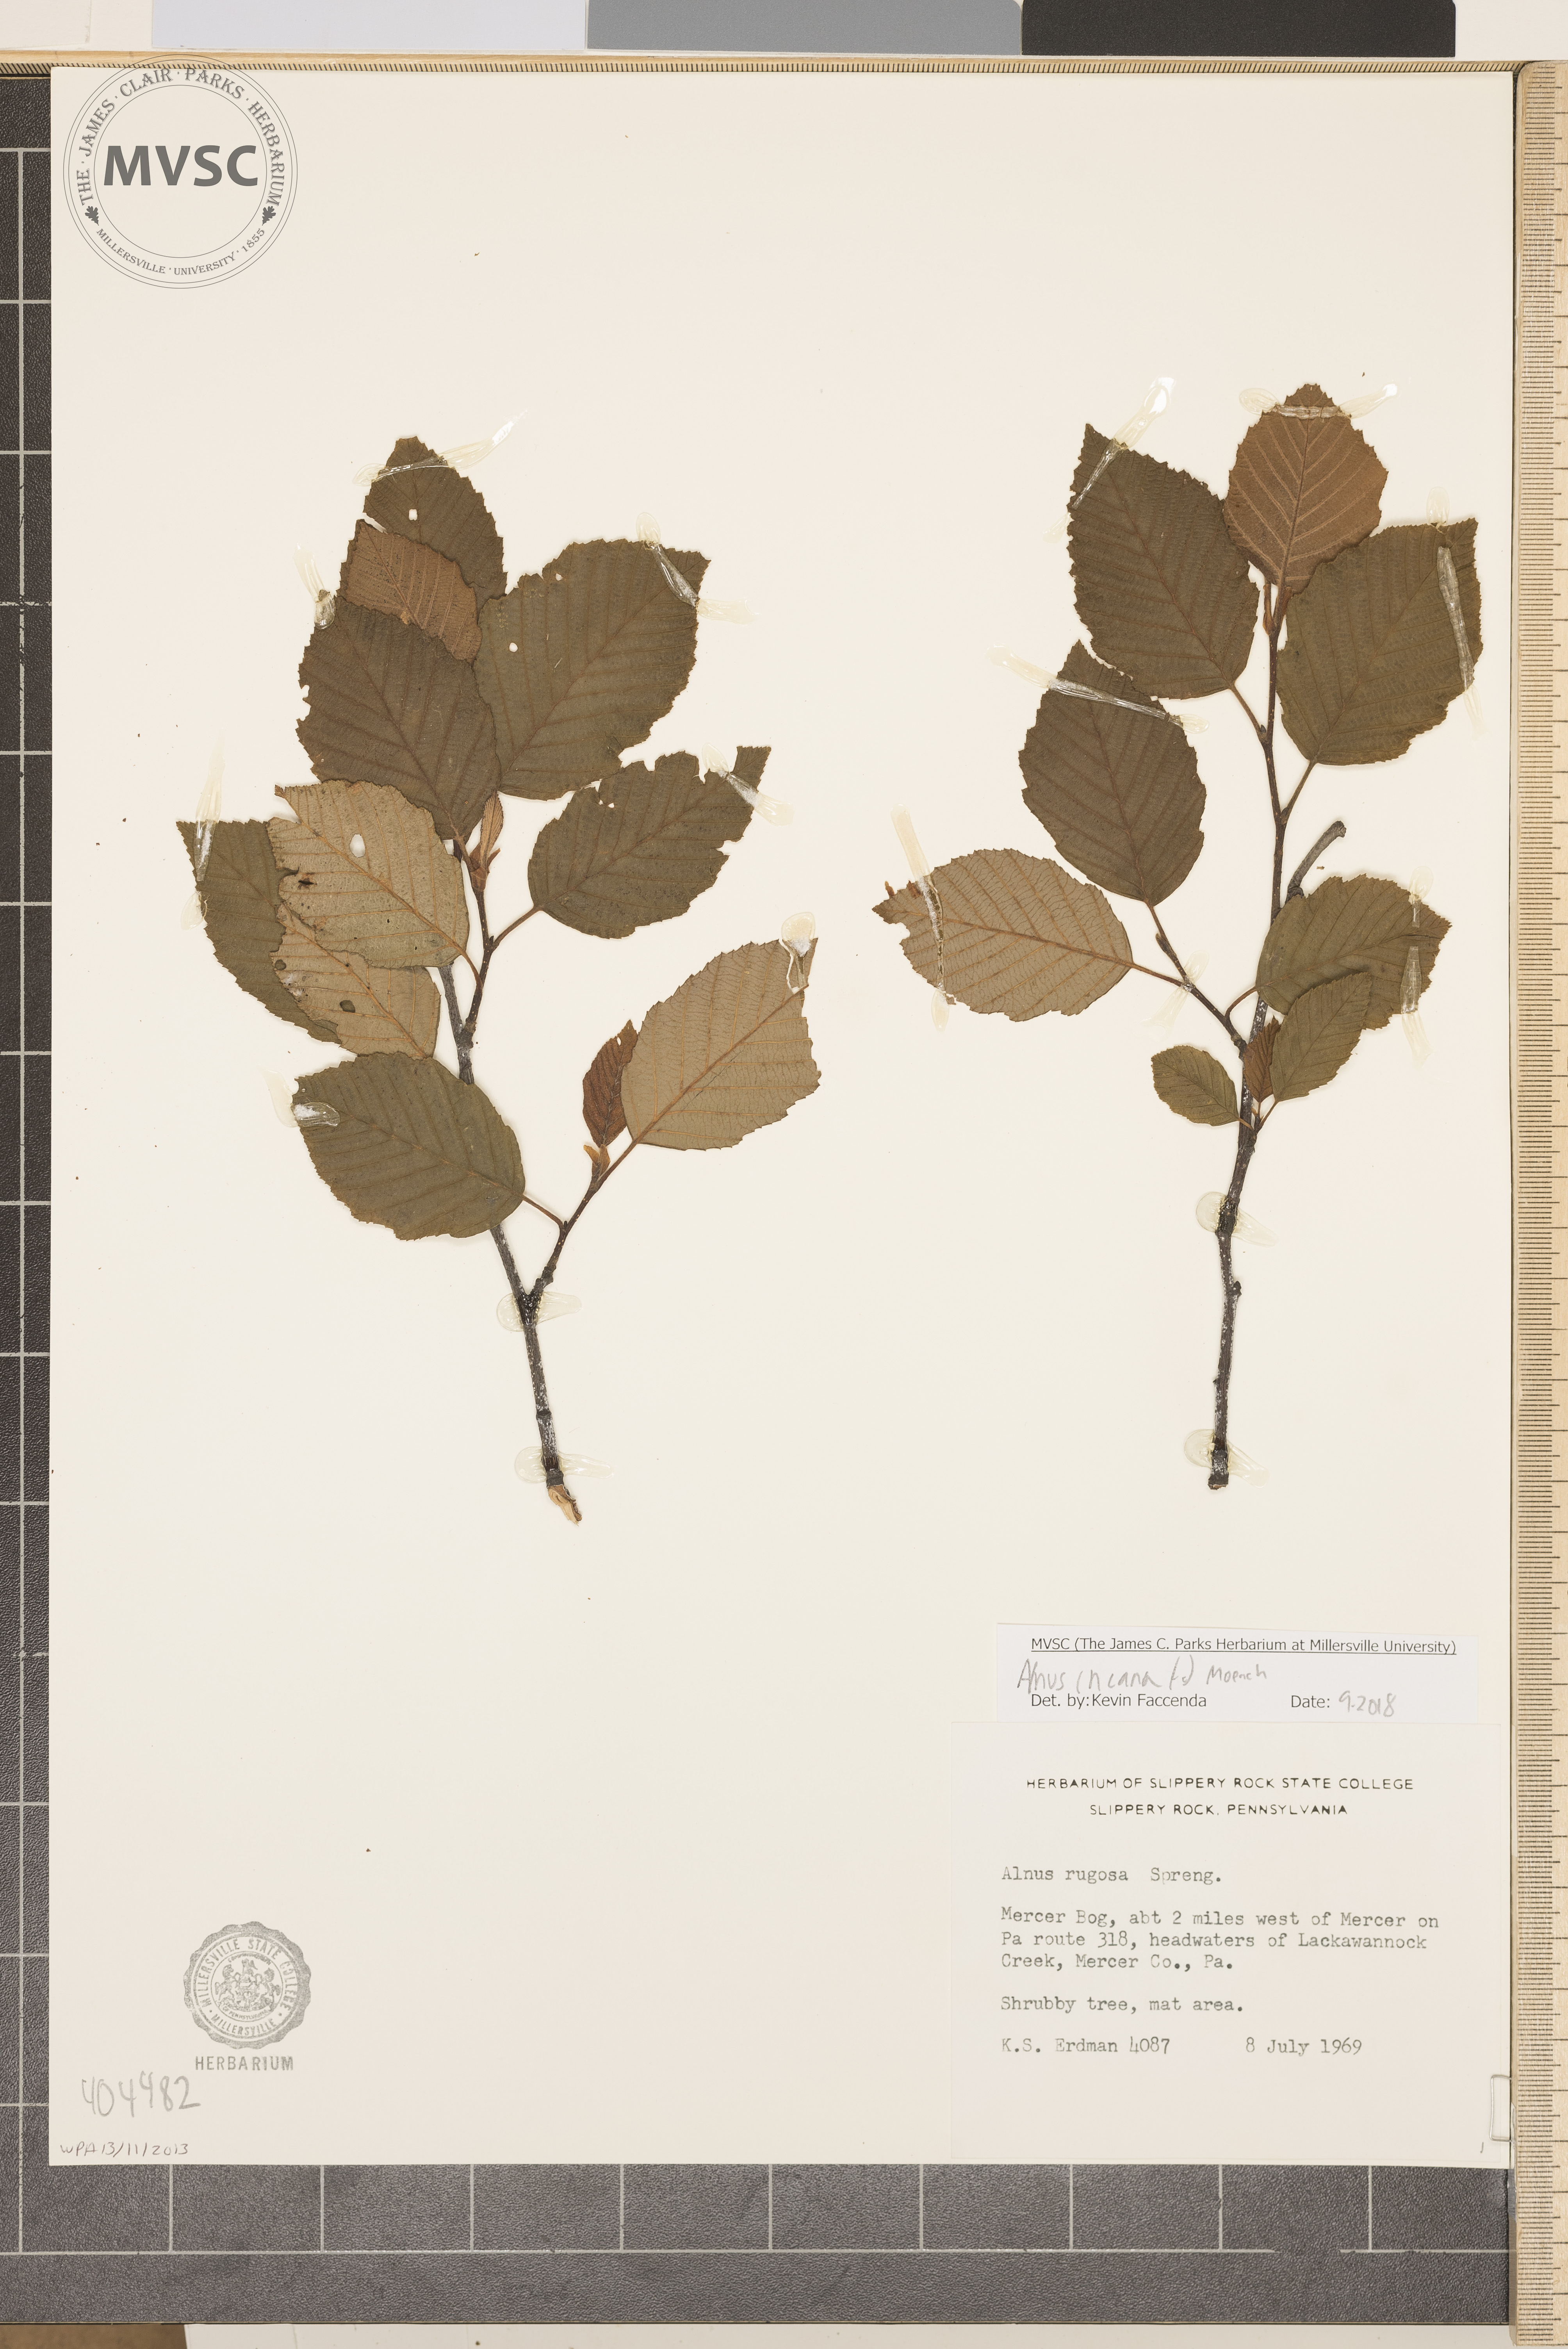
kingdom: Plantae
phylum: Tracheophyta
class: Magnoliopsida
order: Fagales
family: Betulaceae
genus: Alnus
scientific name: Alnus incana
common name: Grey alder
